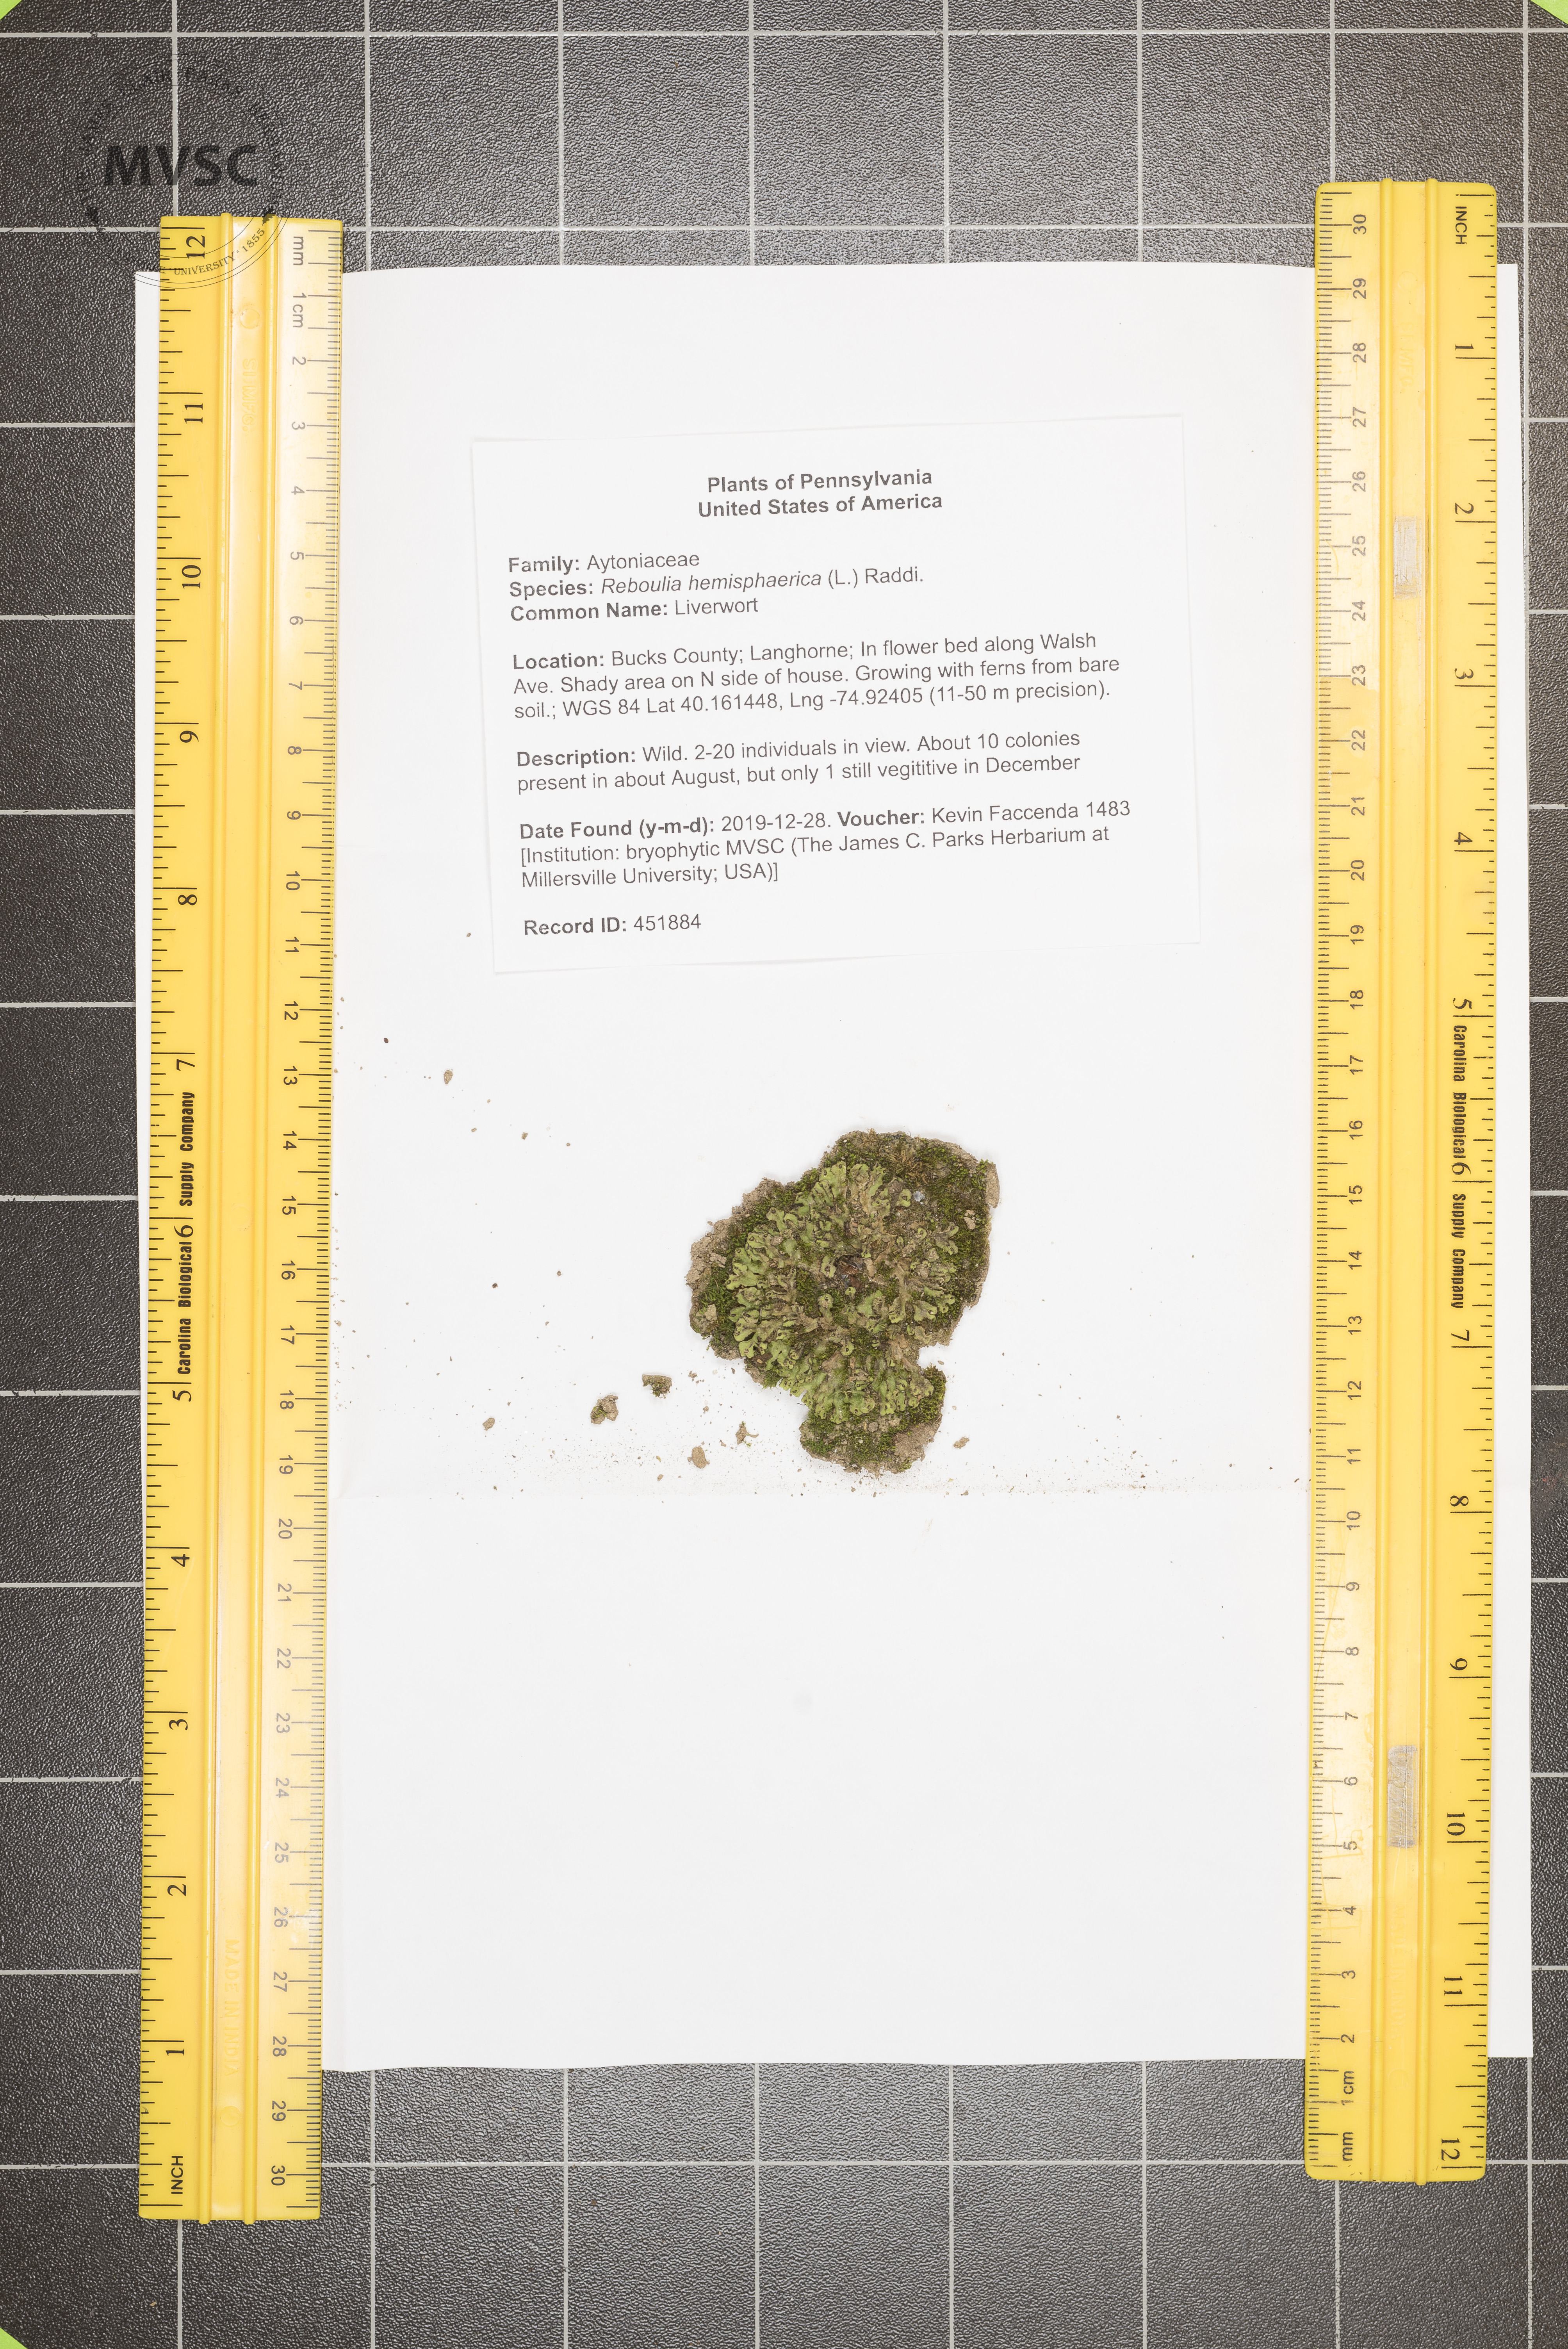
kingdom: Plantae
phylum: Marchantiophyta
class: Marchantiopsida
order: Marchantiales
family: Aytoniaceae
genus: Reboulia
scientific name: Reboulia hemisphaerica
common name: Liverwort
